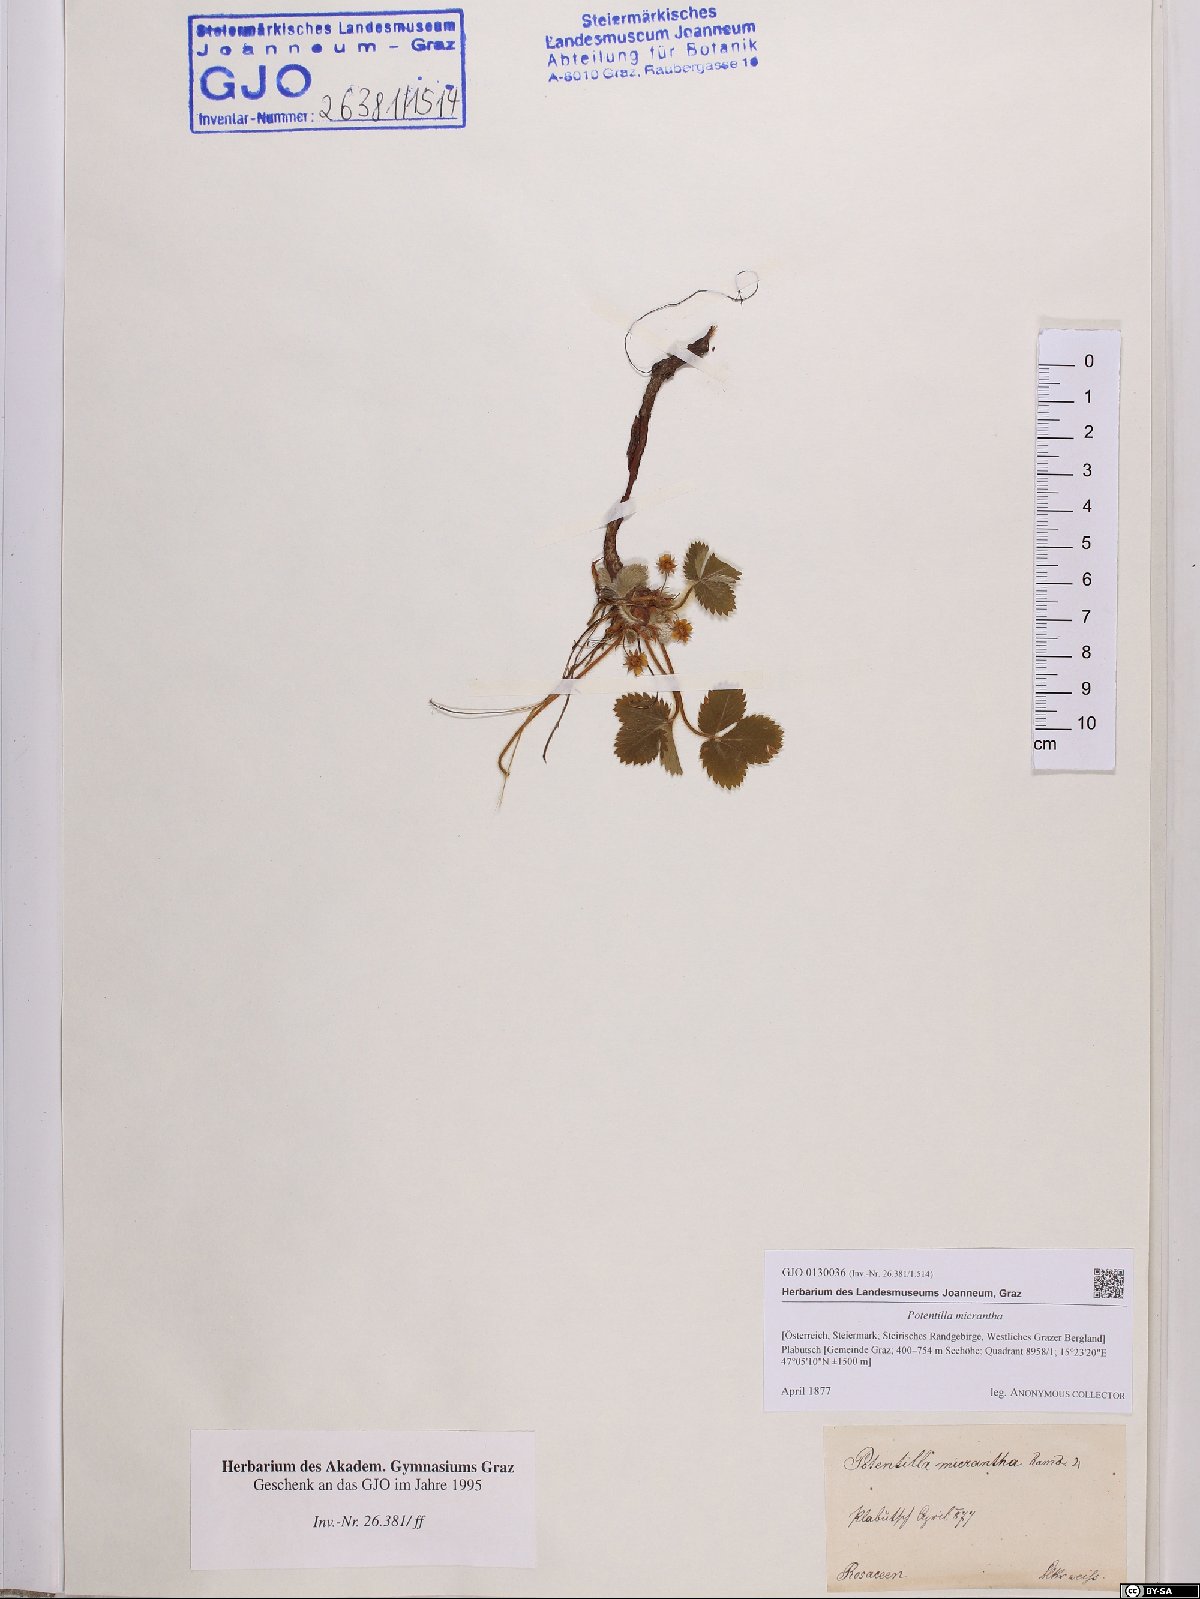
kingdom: Plantae
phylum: Tracheophyta
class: Magnoliopsida
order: Rosales
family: Rosaceae
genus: Potentilla
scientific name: Potentilla micrantha
